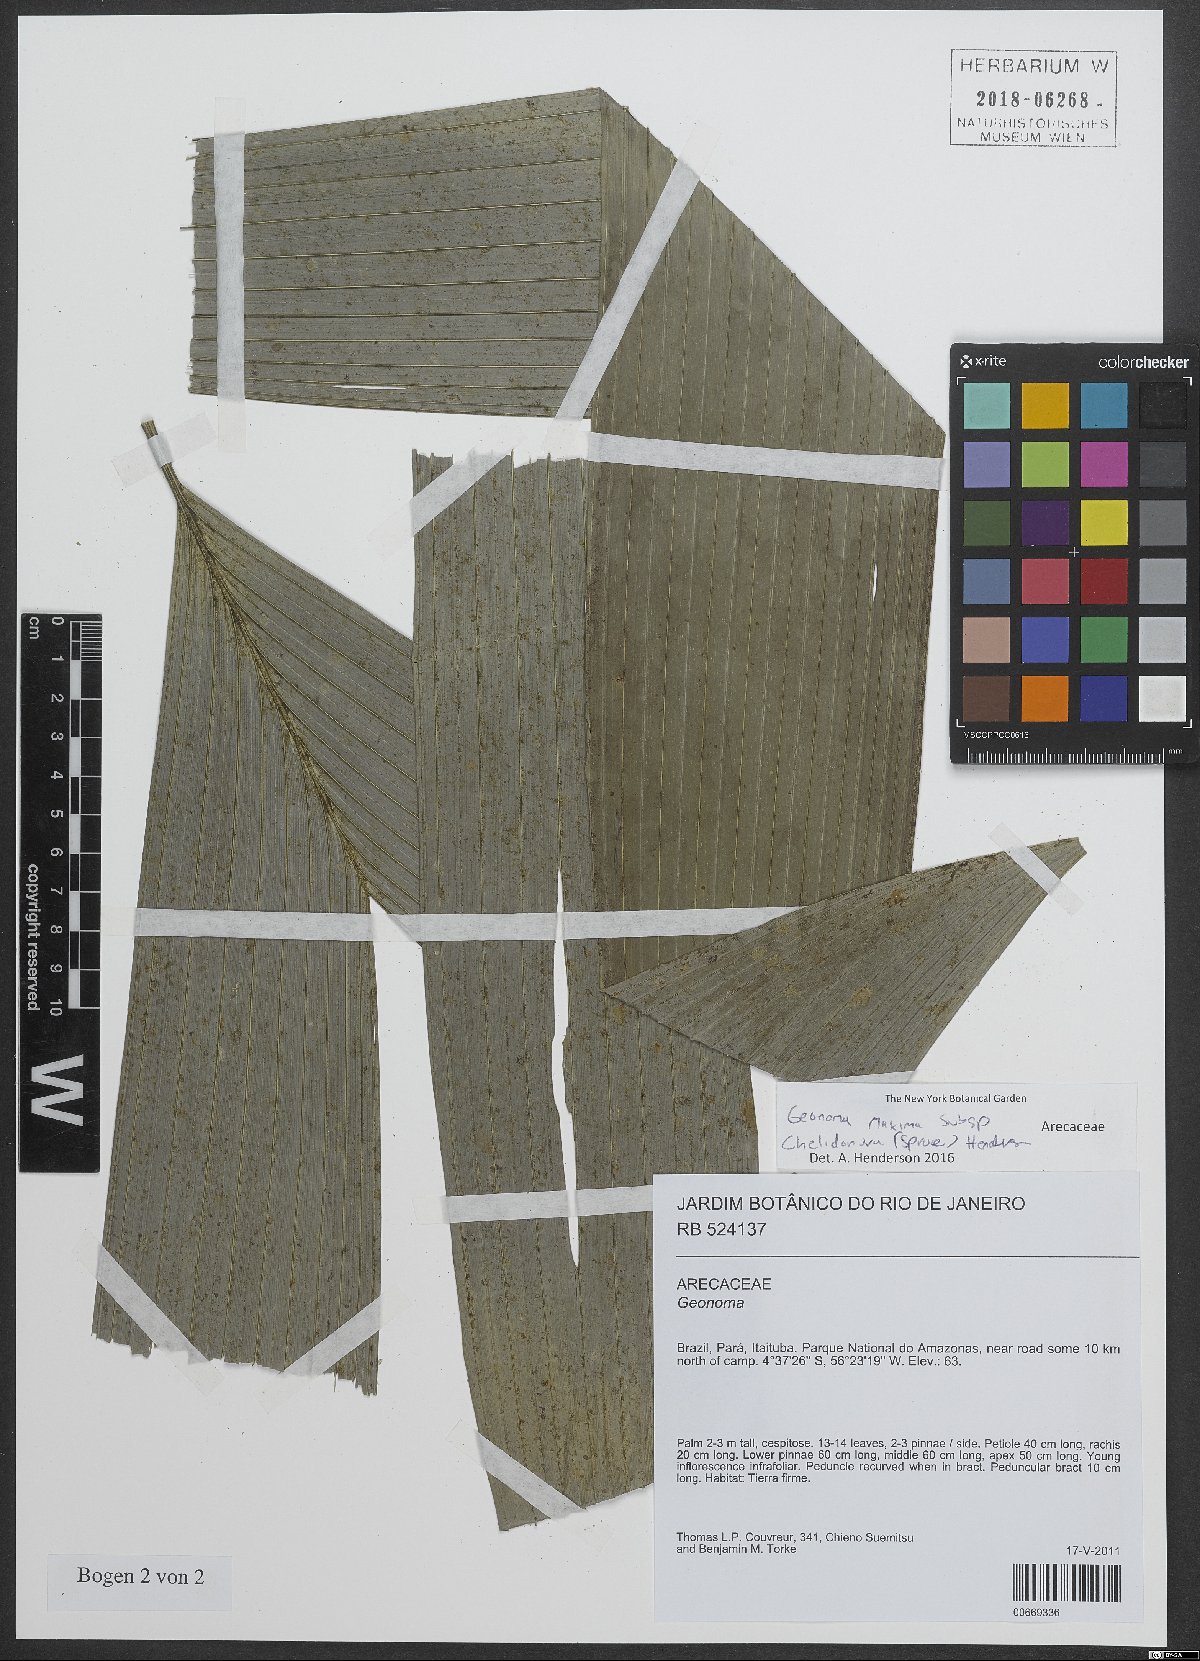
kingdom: Plantae
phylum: Tracheophyta
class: Liliopsida
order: Arecales
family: Arecaceae
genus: Geonoma
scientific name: Geonoma maxima
